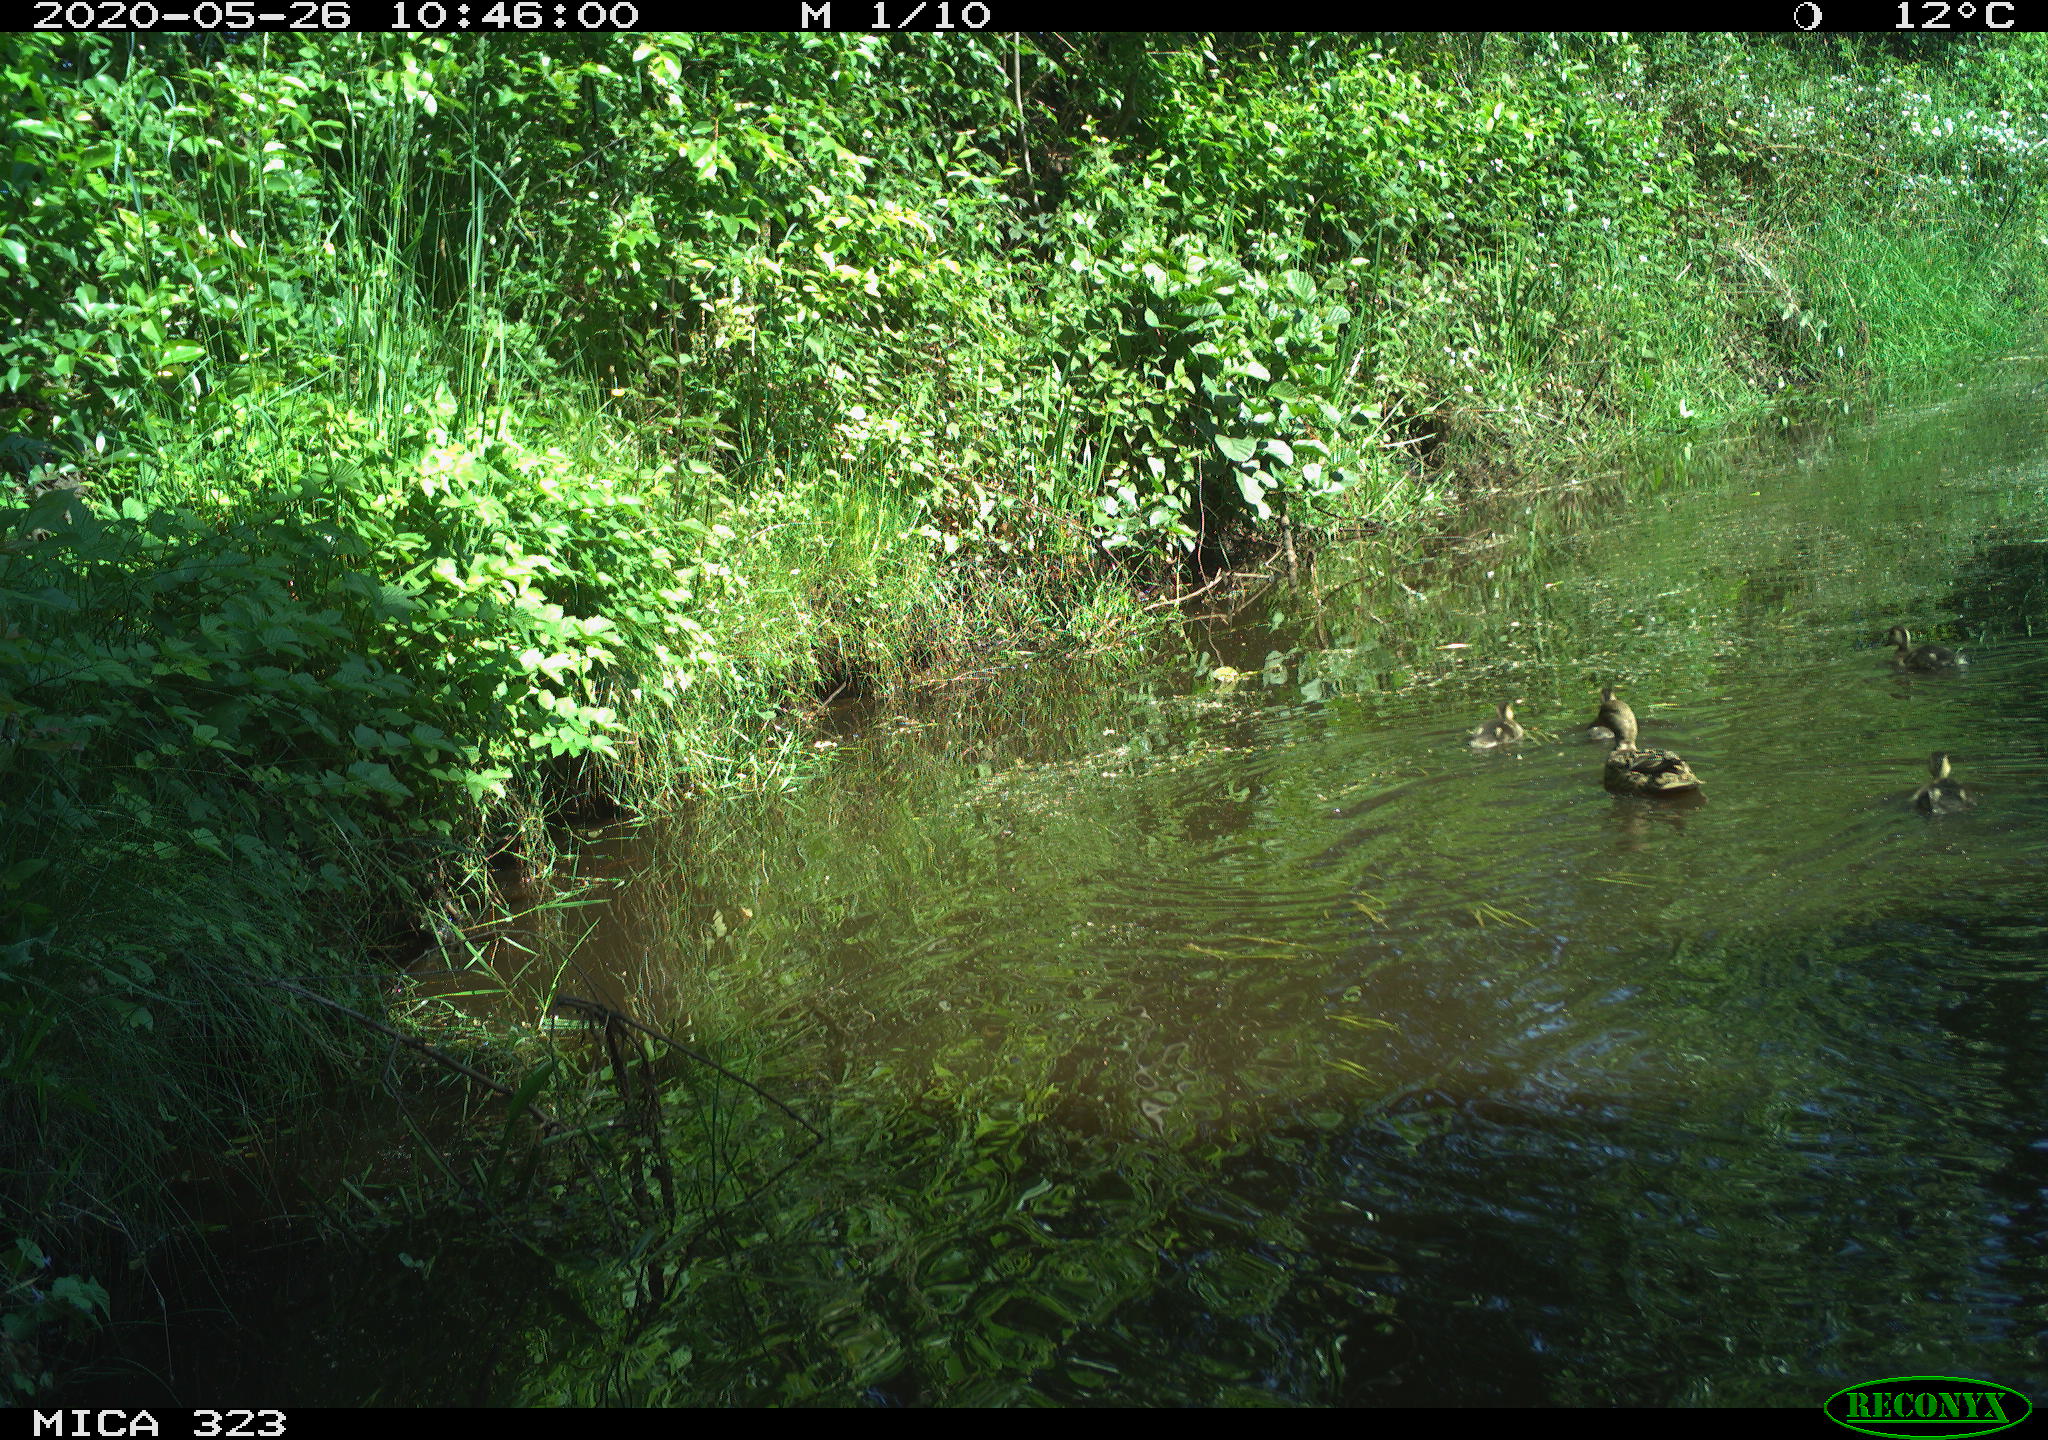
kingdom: Animalia
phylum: Chordata
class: Aves
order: Anseriformes
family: Anatidae
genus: Anas
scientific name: Anas platyrhynchos
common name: Mallard
